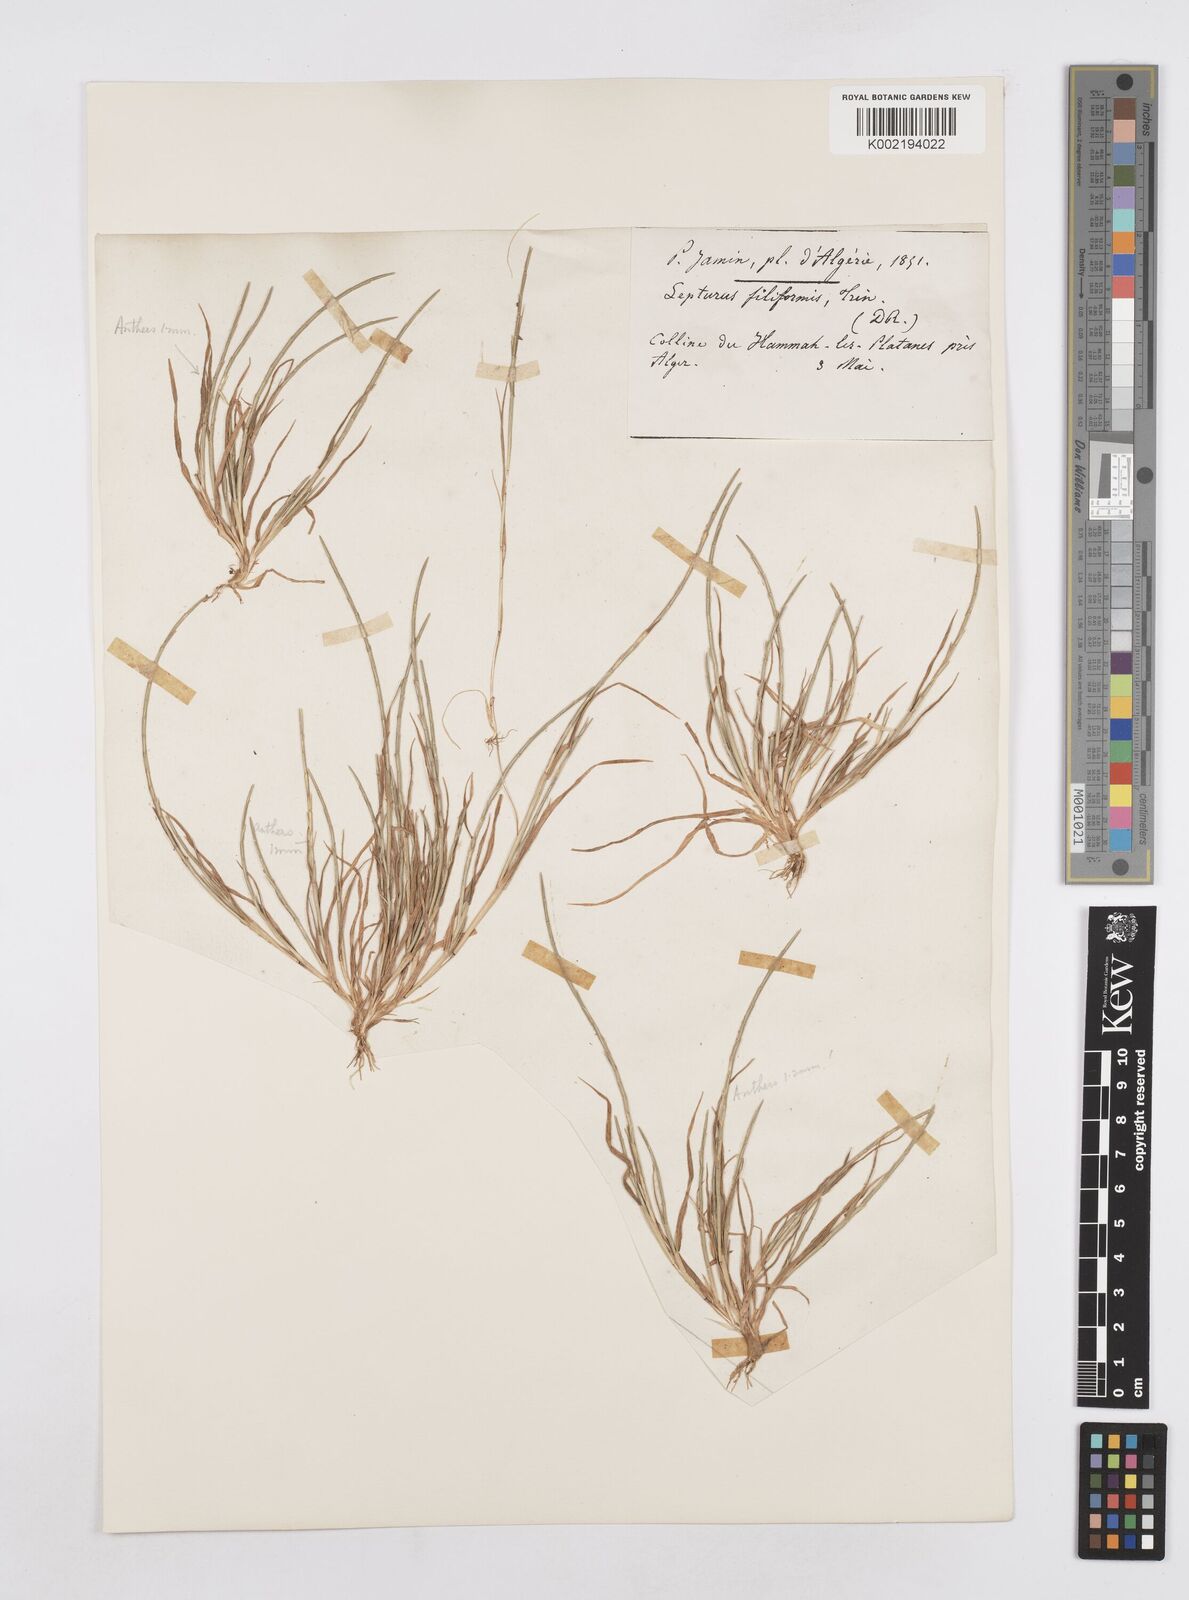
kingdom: Plantae
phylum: Tracheophyta
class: Liliopsida
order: Poales
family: Poaceae
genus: Parapholis
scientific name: Parapholis incurva
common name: Curved sicklegrass
